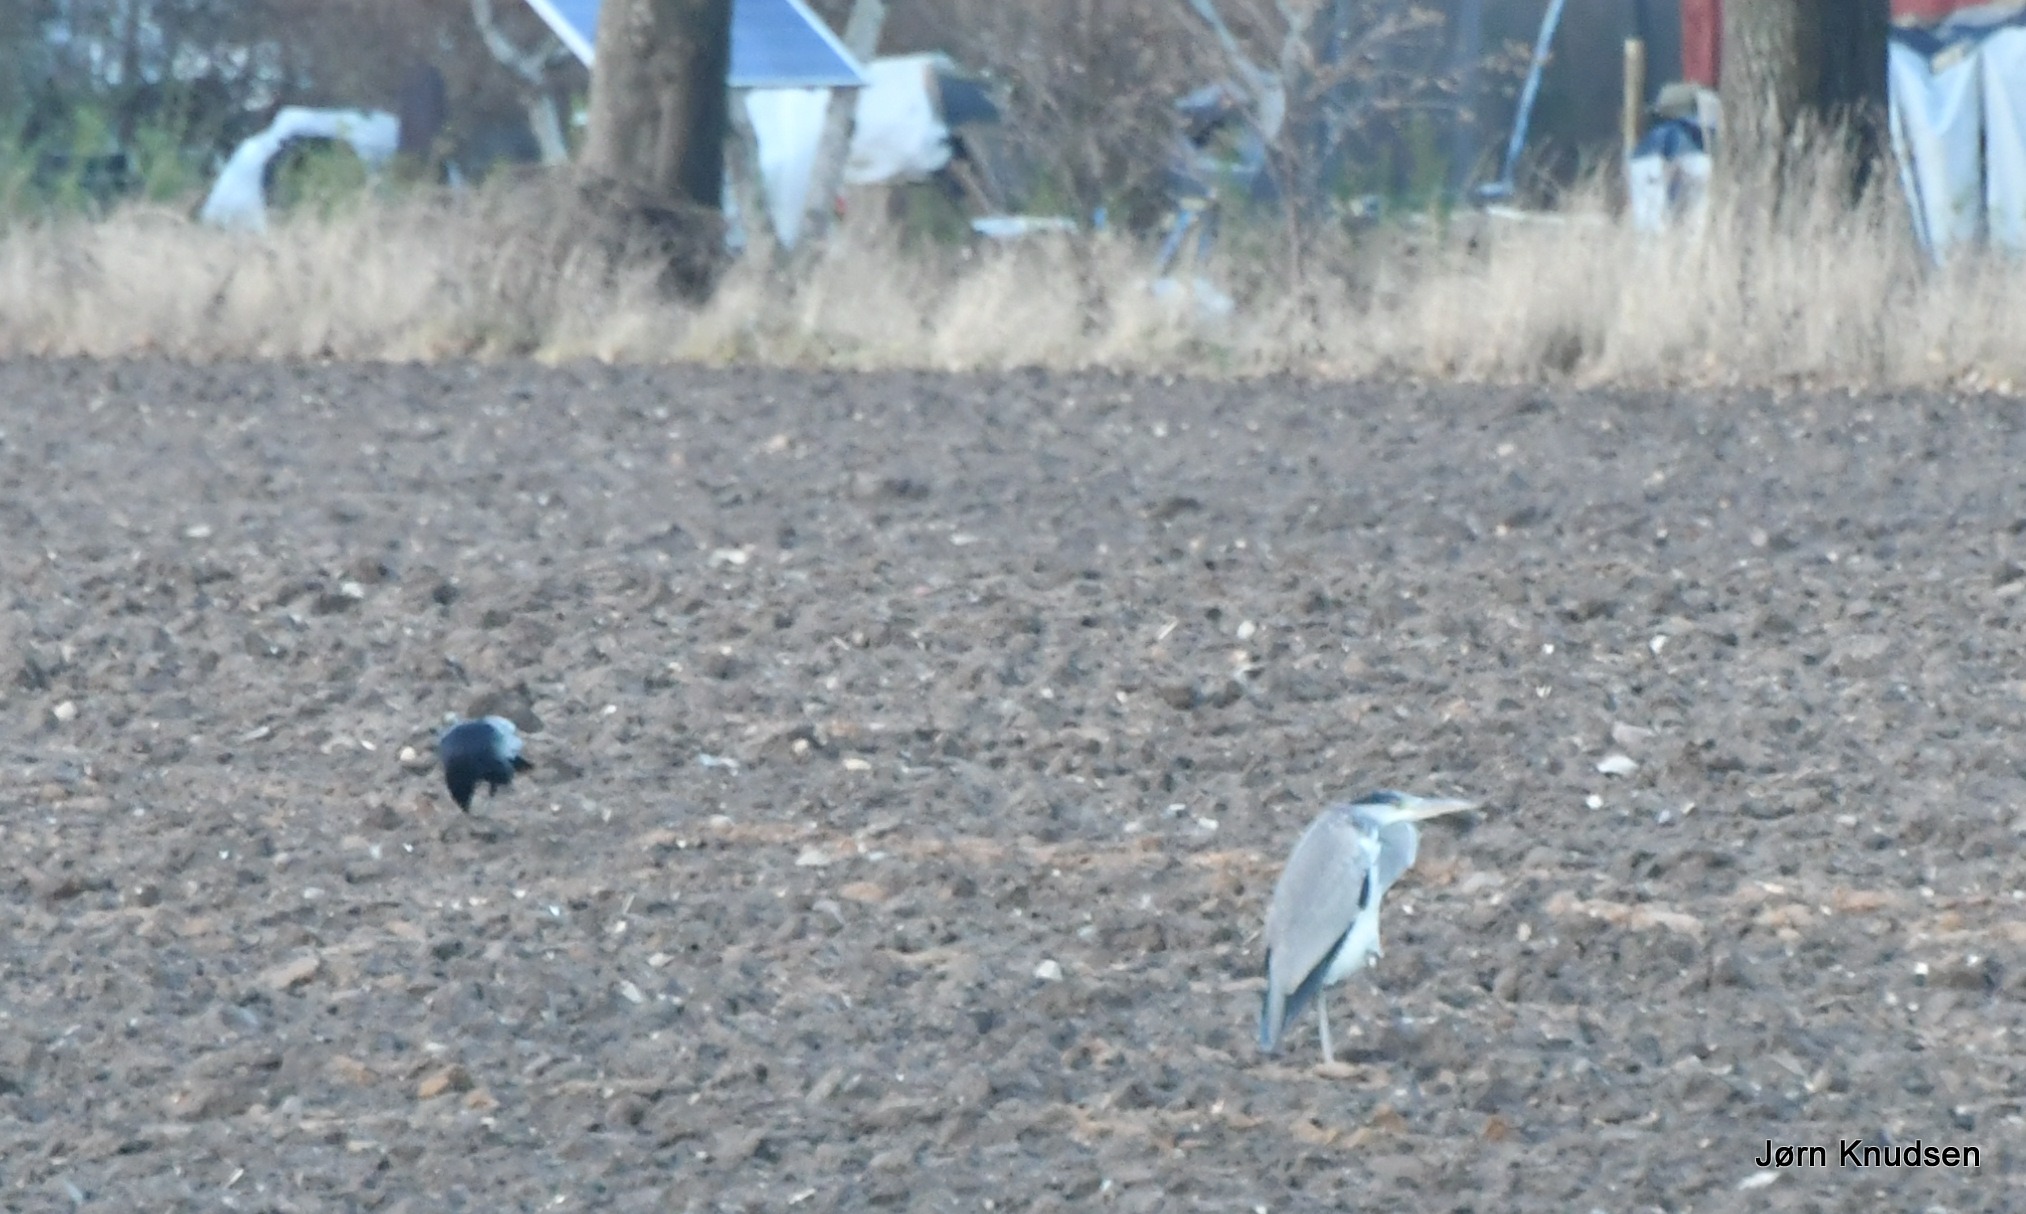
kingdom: Animalia
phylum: Chordata
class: Aves
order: Pelecaniformes
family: Ardeidae
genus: Ardea
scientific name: Ardea cinerea
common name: Fiskehejre
